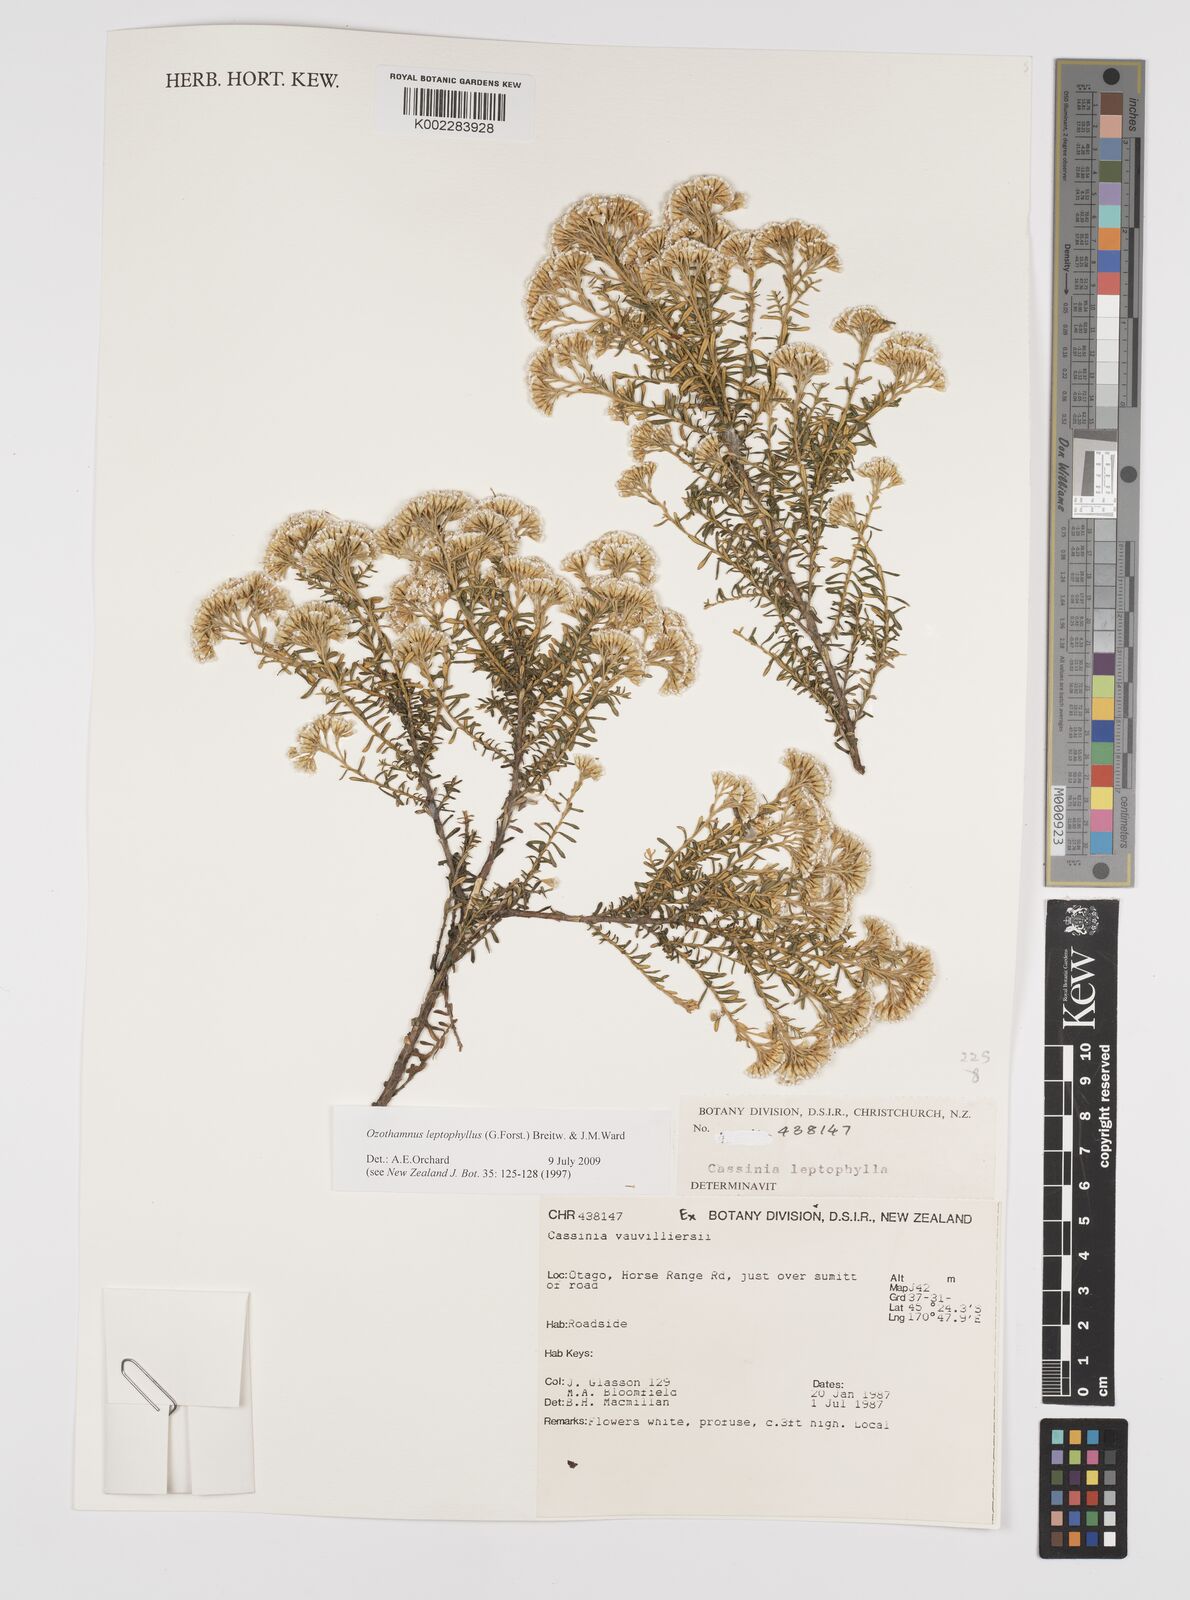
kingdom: Plantae
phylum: Tracheophyta
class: Magnoliopsida
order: Asterales
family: Asteraceae
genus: Ozothamnus
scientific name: Ozothamnus leptophyllus
